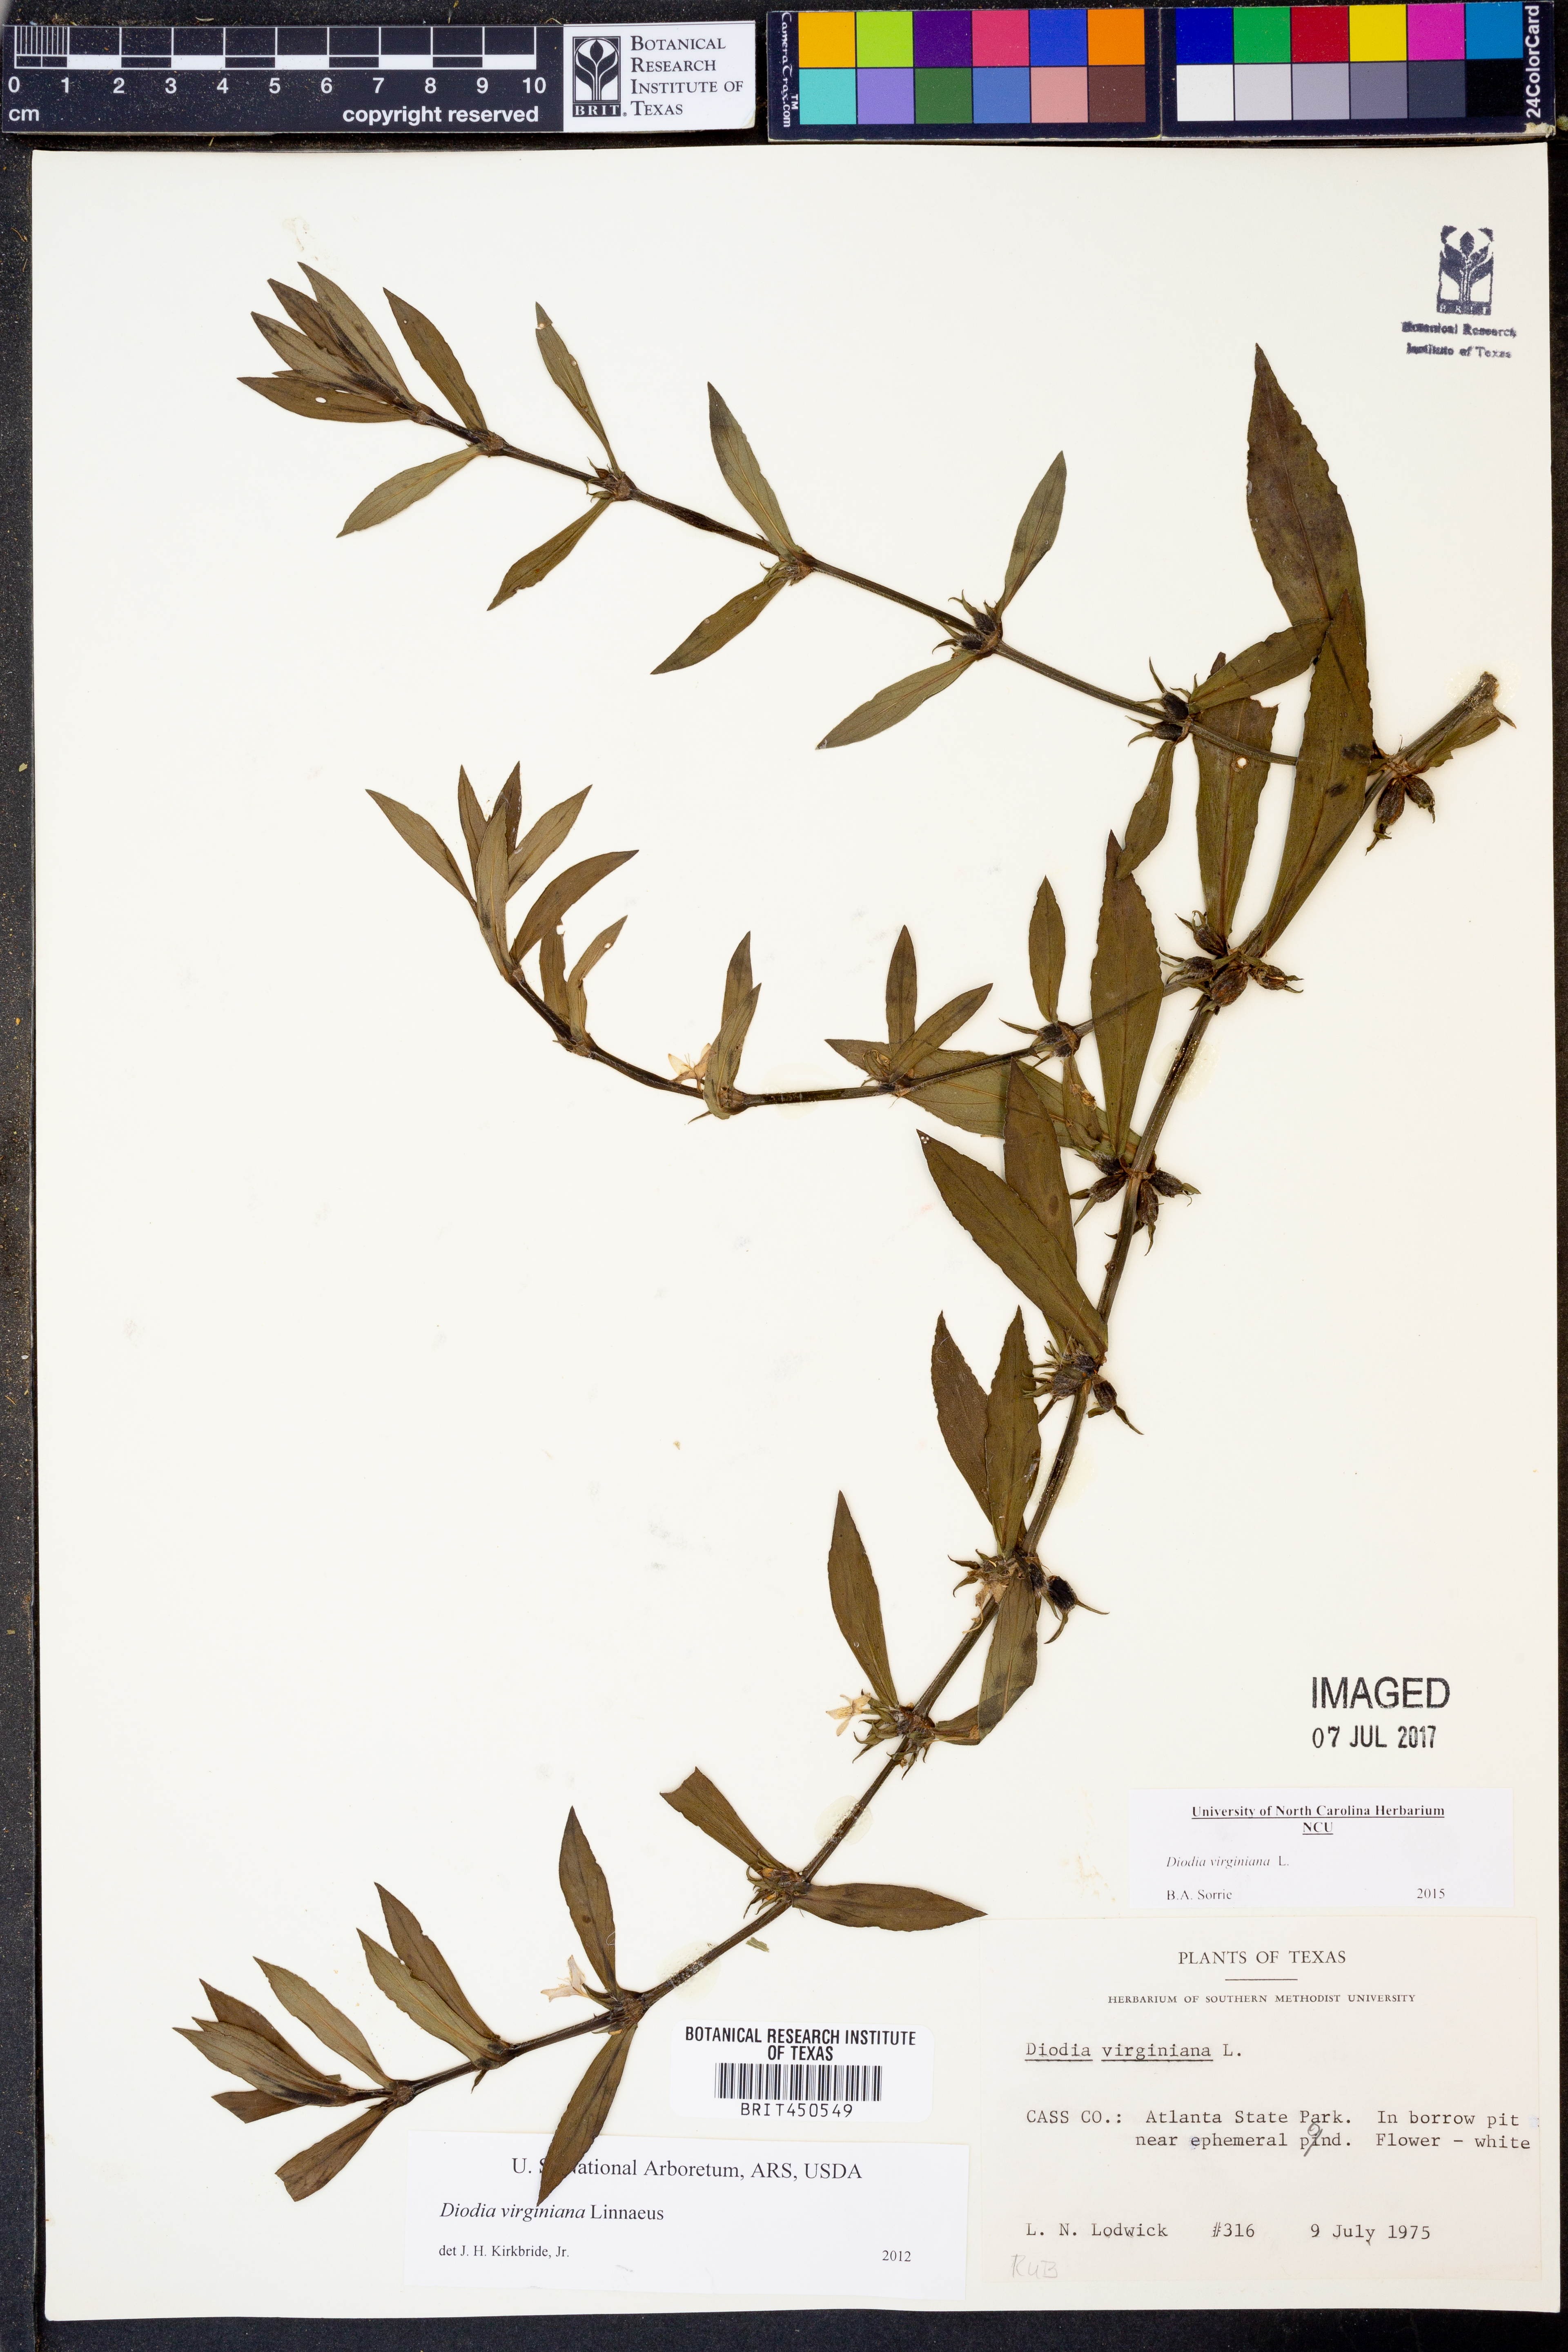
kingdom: Plantae
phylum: Tracheophyta
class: Magnoliopsida
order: Gentianales
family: Rubiaceae
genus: Diodia
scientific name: Diodia virginiana
